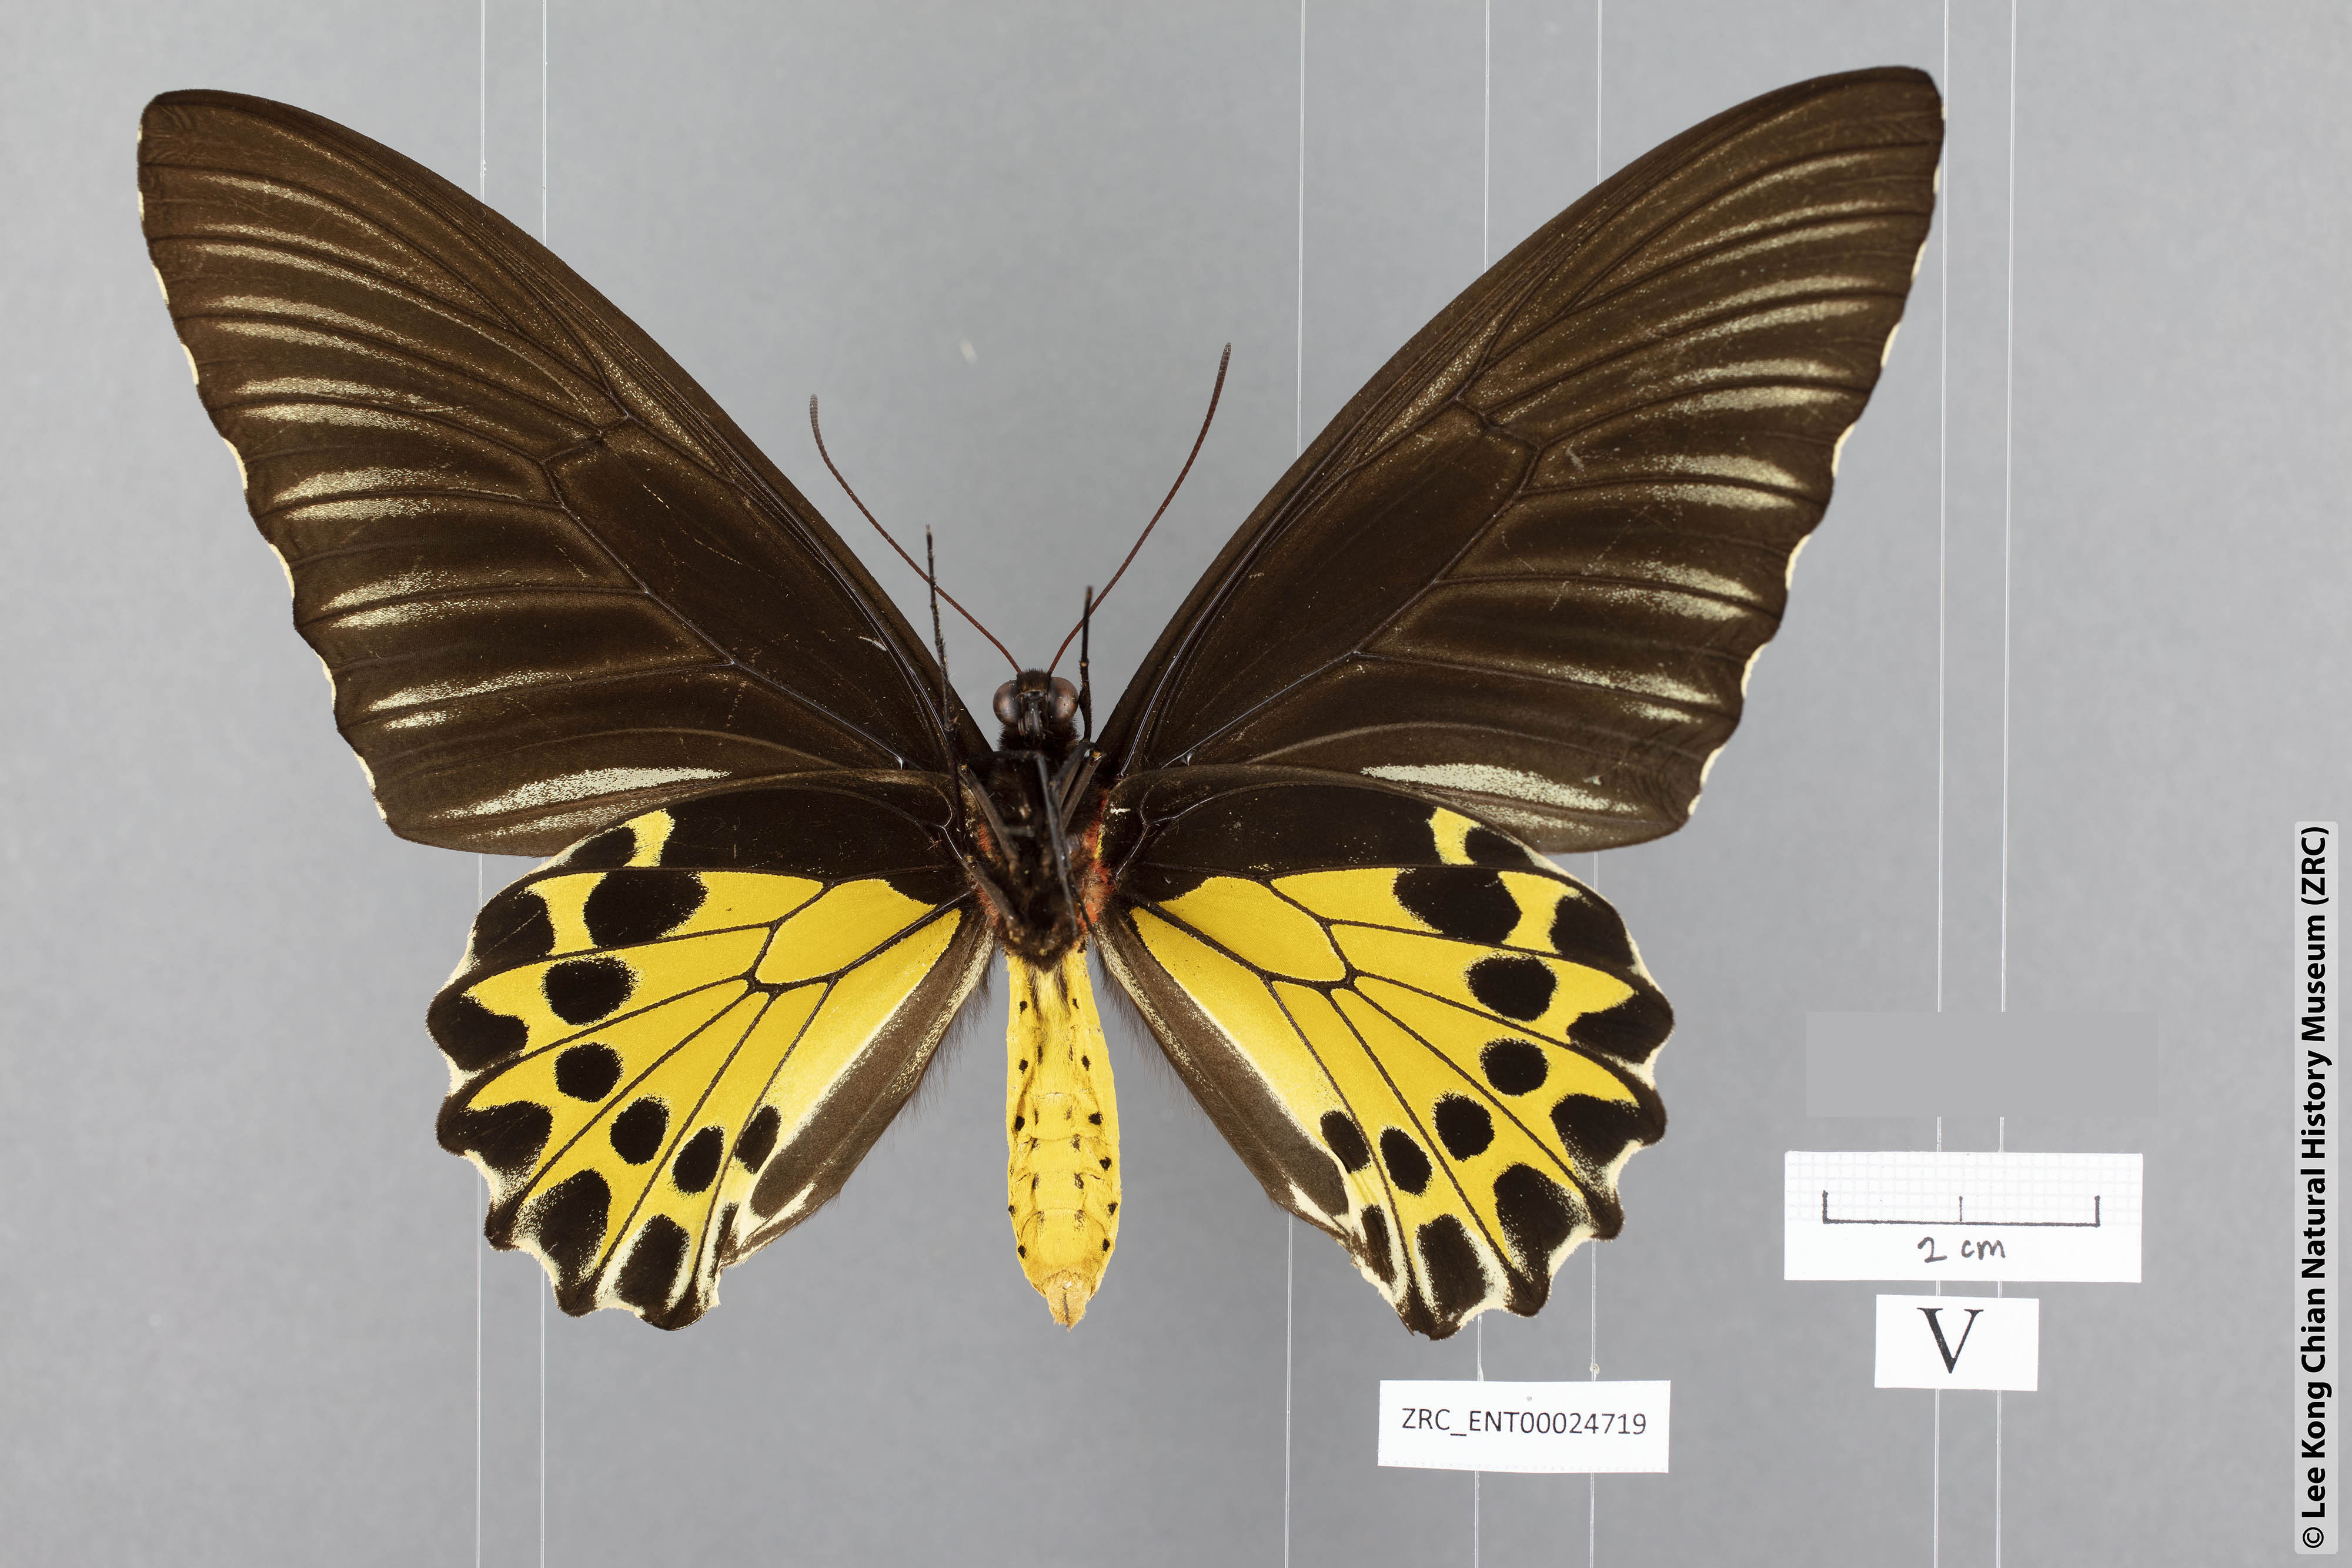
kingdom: Animalia
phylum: Arthropoda
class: Insecta
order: Lepidoptera
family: Papilionidae
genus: Troides
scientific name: Troides amphyrus
